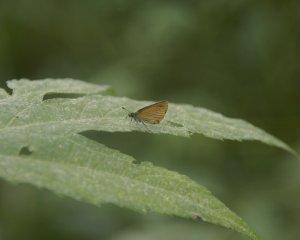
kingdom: Animalia
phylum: Arthropoda
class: Insecta
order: Lepidoptera
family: Hesperiidae
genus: Ancyloxypha
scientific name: Ancyloxypha numitor
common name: Least Skipper
